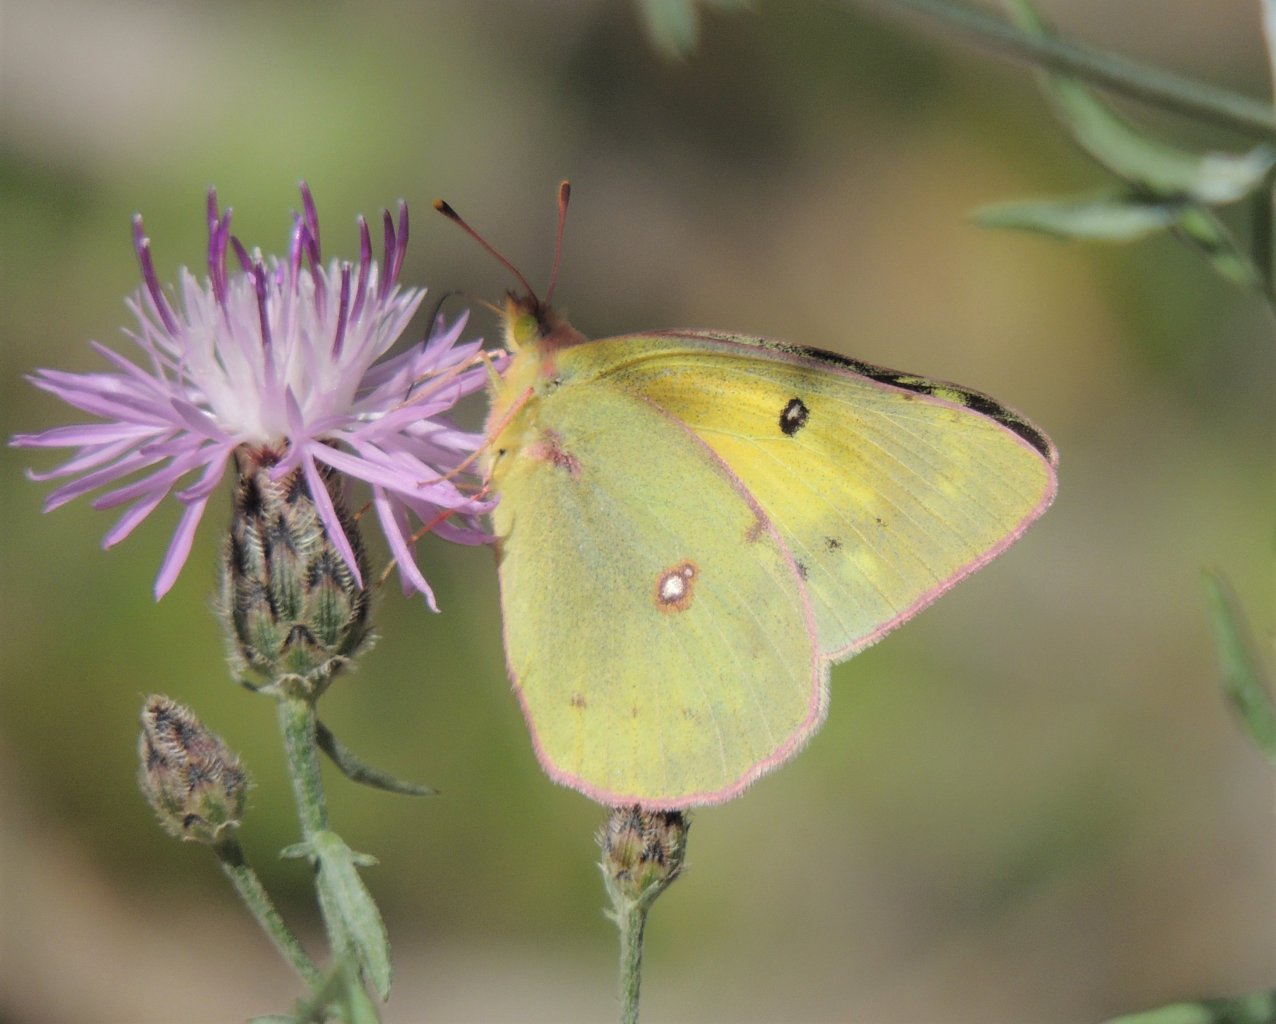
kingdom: Animalia
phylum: Arthropoda
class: Insecta
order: Lepidoptera
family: Pieridae
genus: Colias
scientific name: Colias eurytheme
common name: Orange Sulphur
